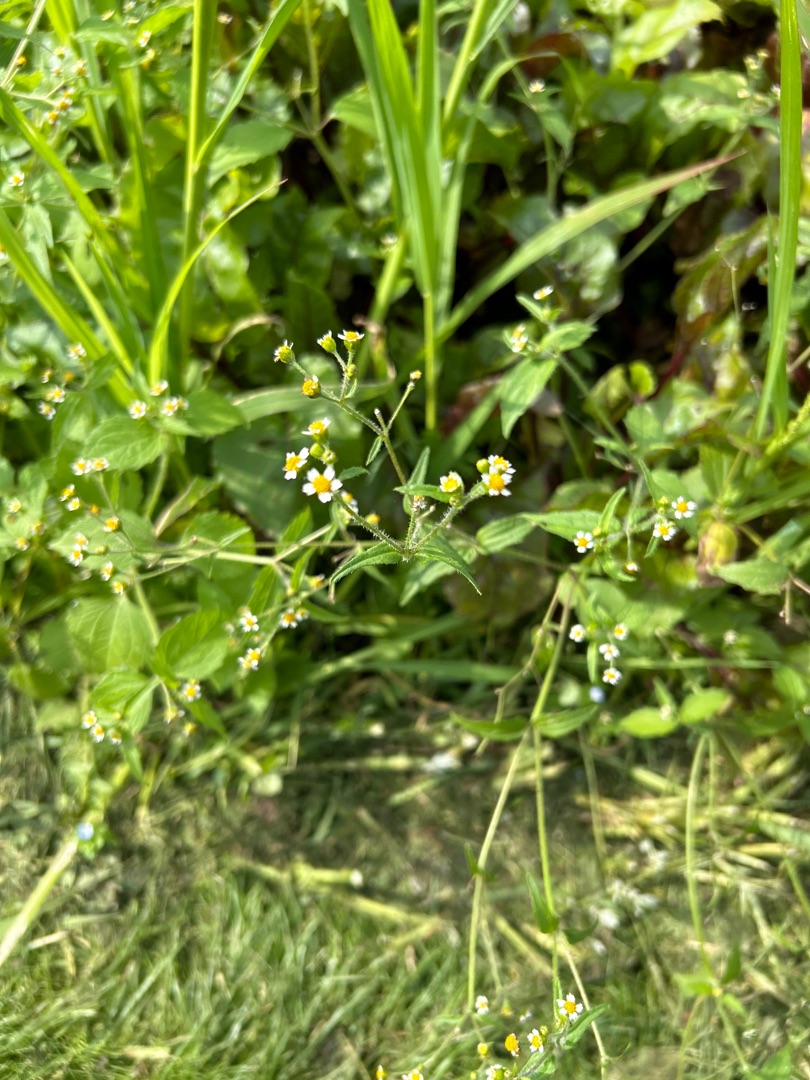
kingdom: Plantae
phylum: Tracheophyta
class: Magnoliopsida
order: Asterales
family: Asteraceae
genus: Galinsoga
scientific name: Galinsoga quadriradiata
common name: Kirtel-kortstråle
